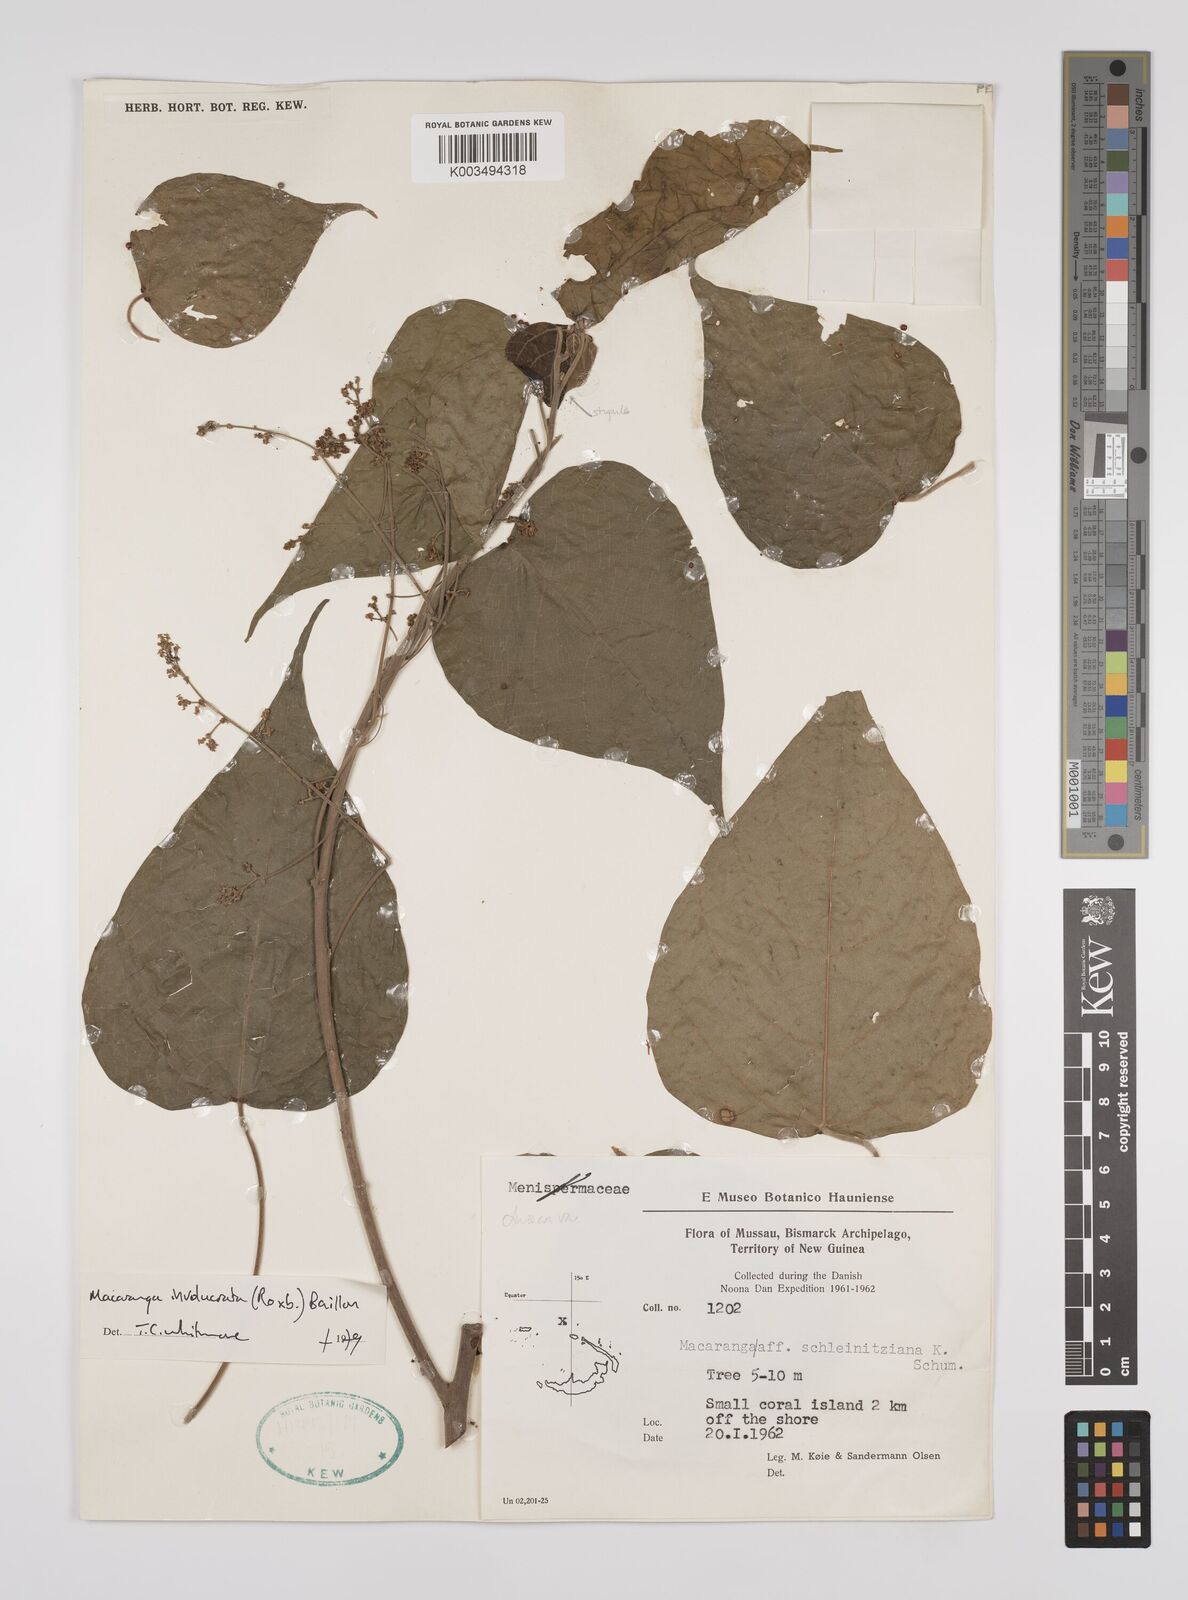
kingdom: Plantae
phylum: Tracheophyta
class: Magnoliopsida
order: Malpighiales
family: Euphorbiaceae
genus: Macaranga
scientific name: Macaranga involucrata
